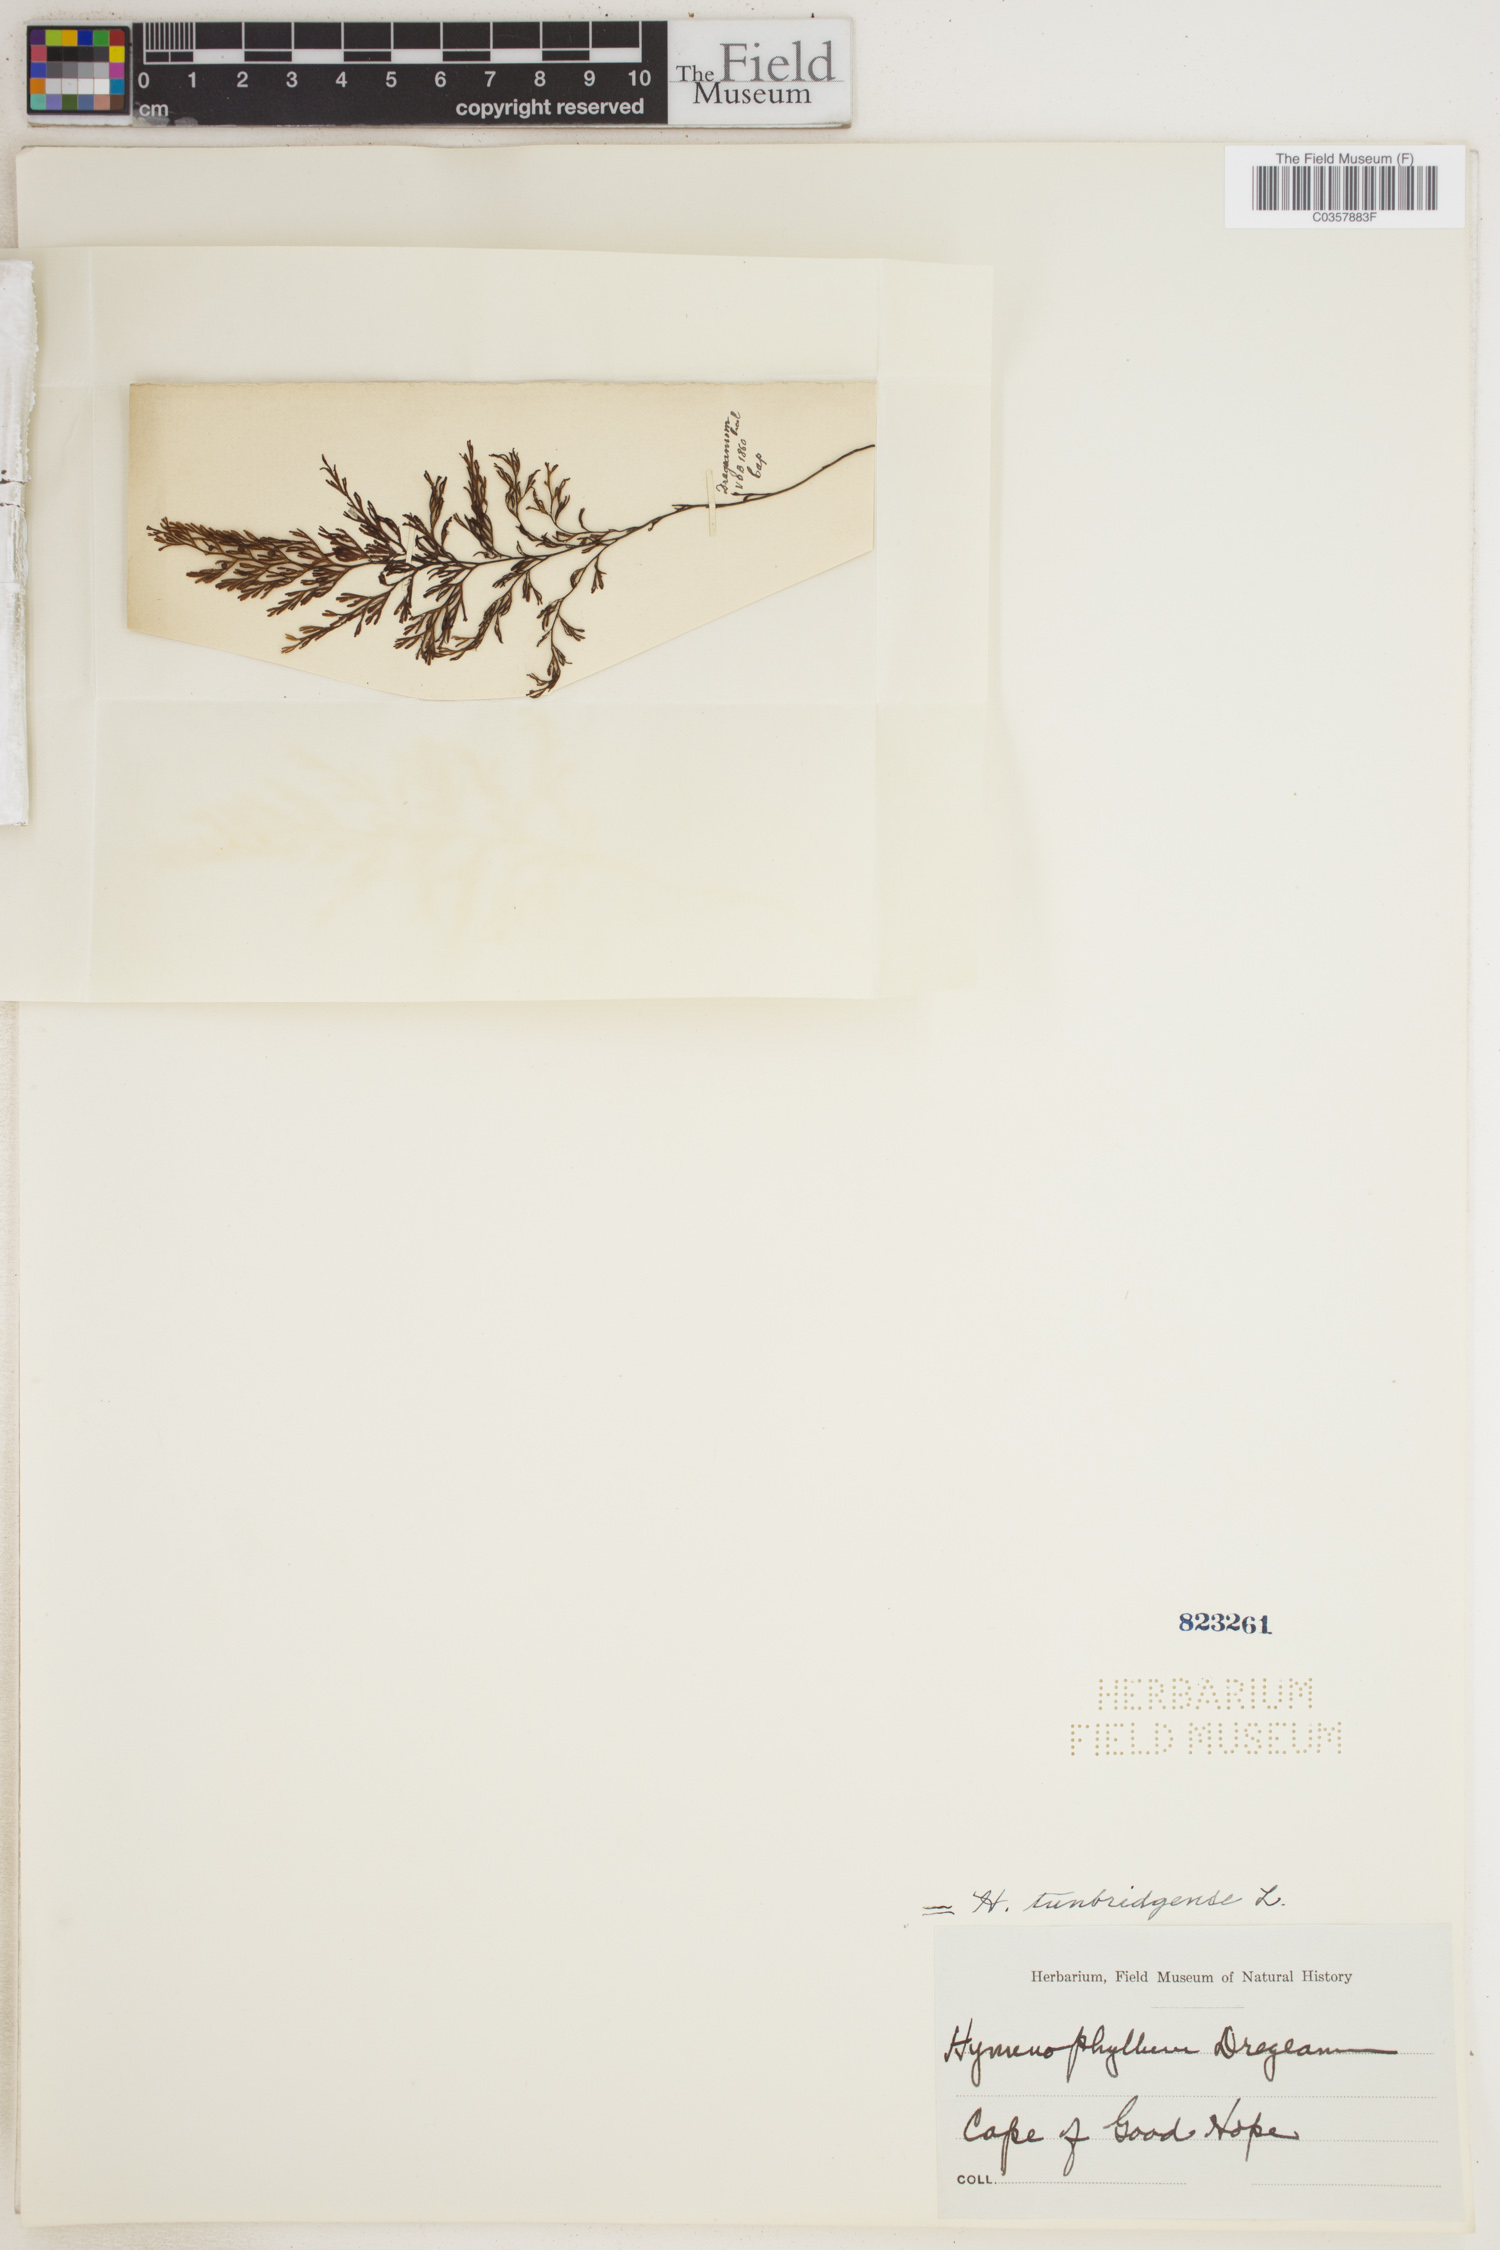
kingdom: Plantae
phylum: Tracheophyta
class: Polypodiopsida
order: Hymenophyllales
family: Hymenophyllaceae
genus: Hymenophyllum
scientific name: Hymenophyllum tunbridgense
